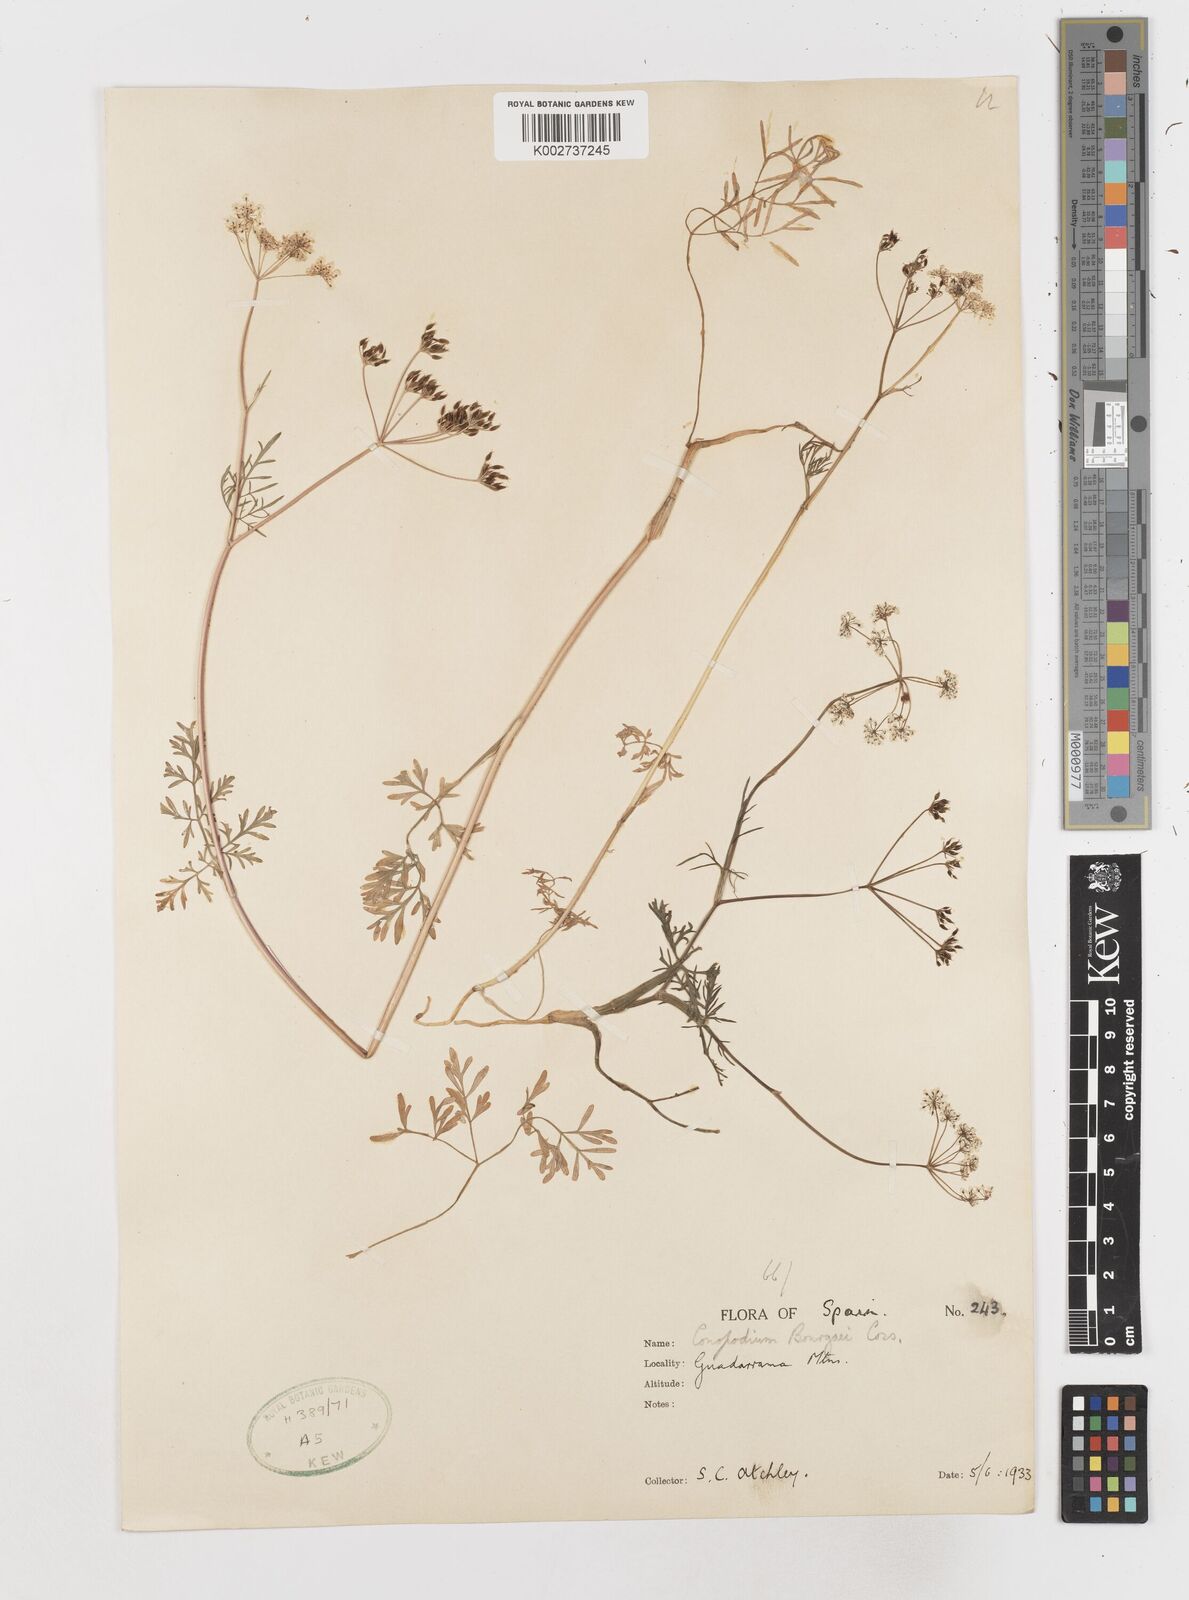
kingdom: Plantae
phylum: Tracheophyta
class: Magnoliopsida
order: Apiales
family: Apiaceae
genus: Conopodium
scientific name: Conopodium pyrenaeum
